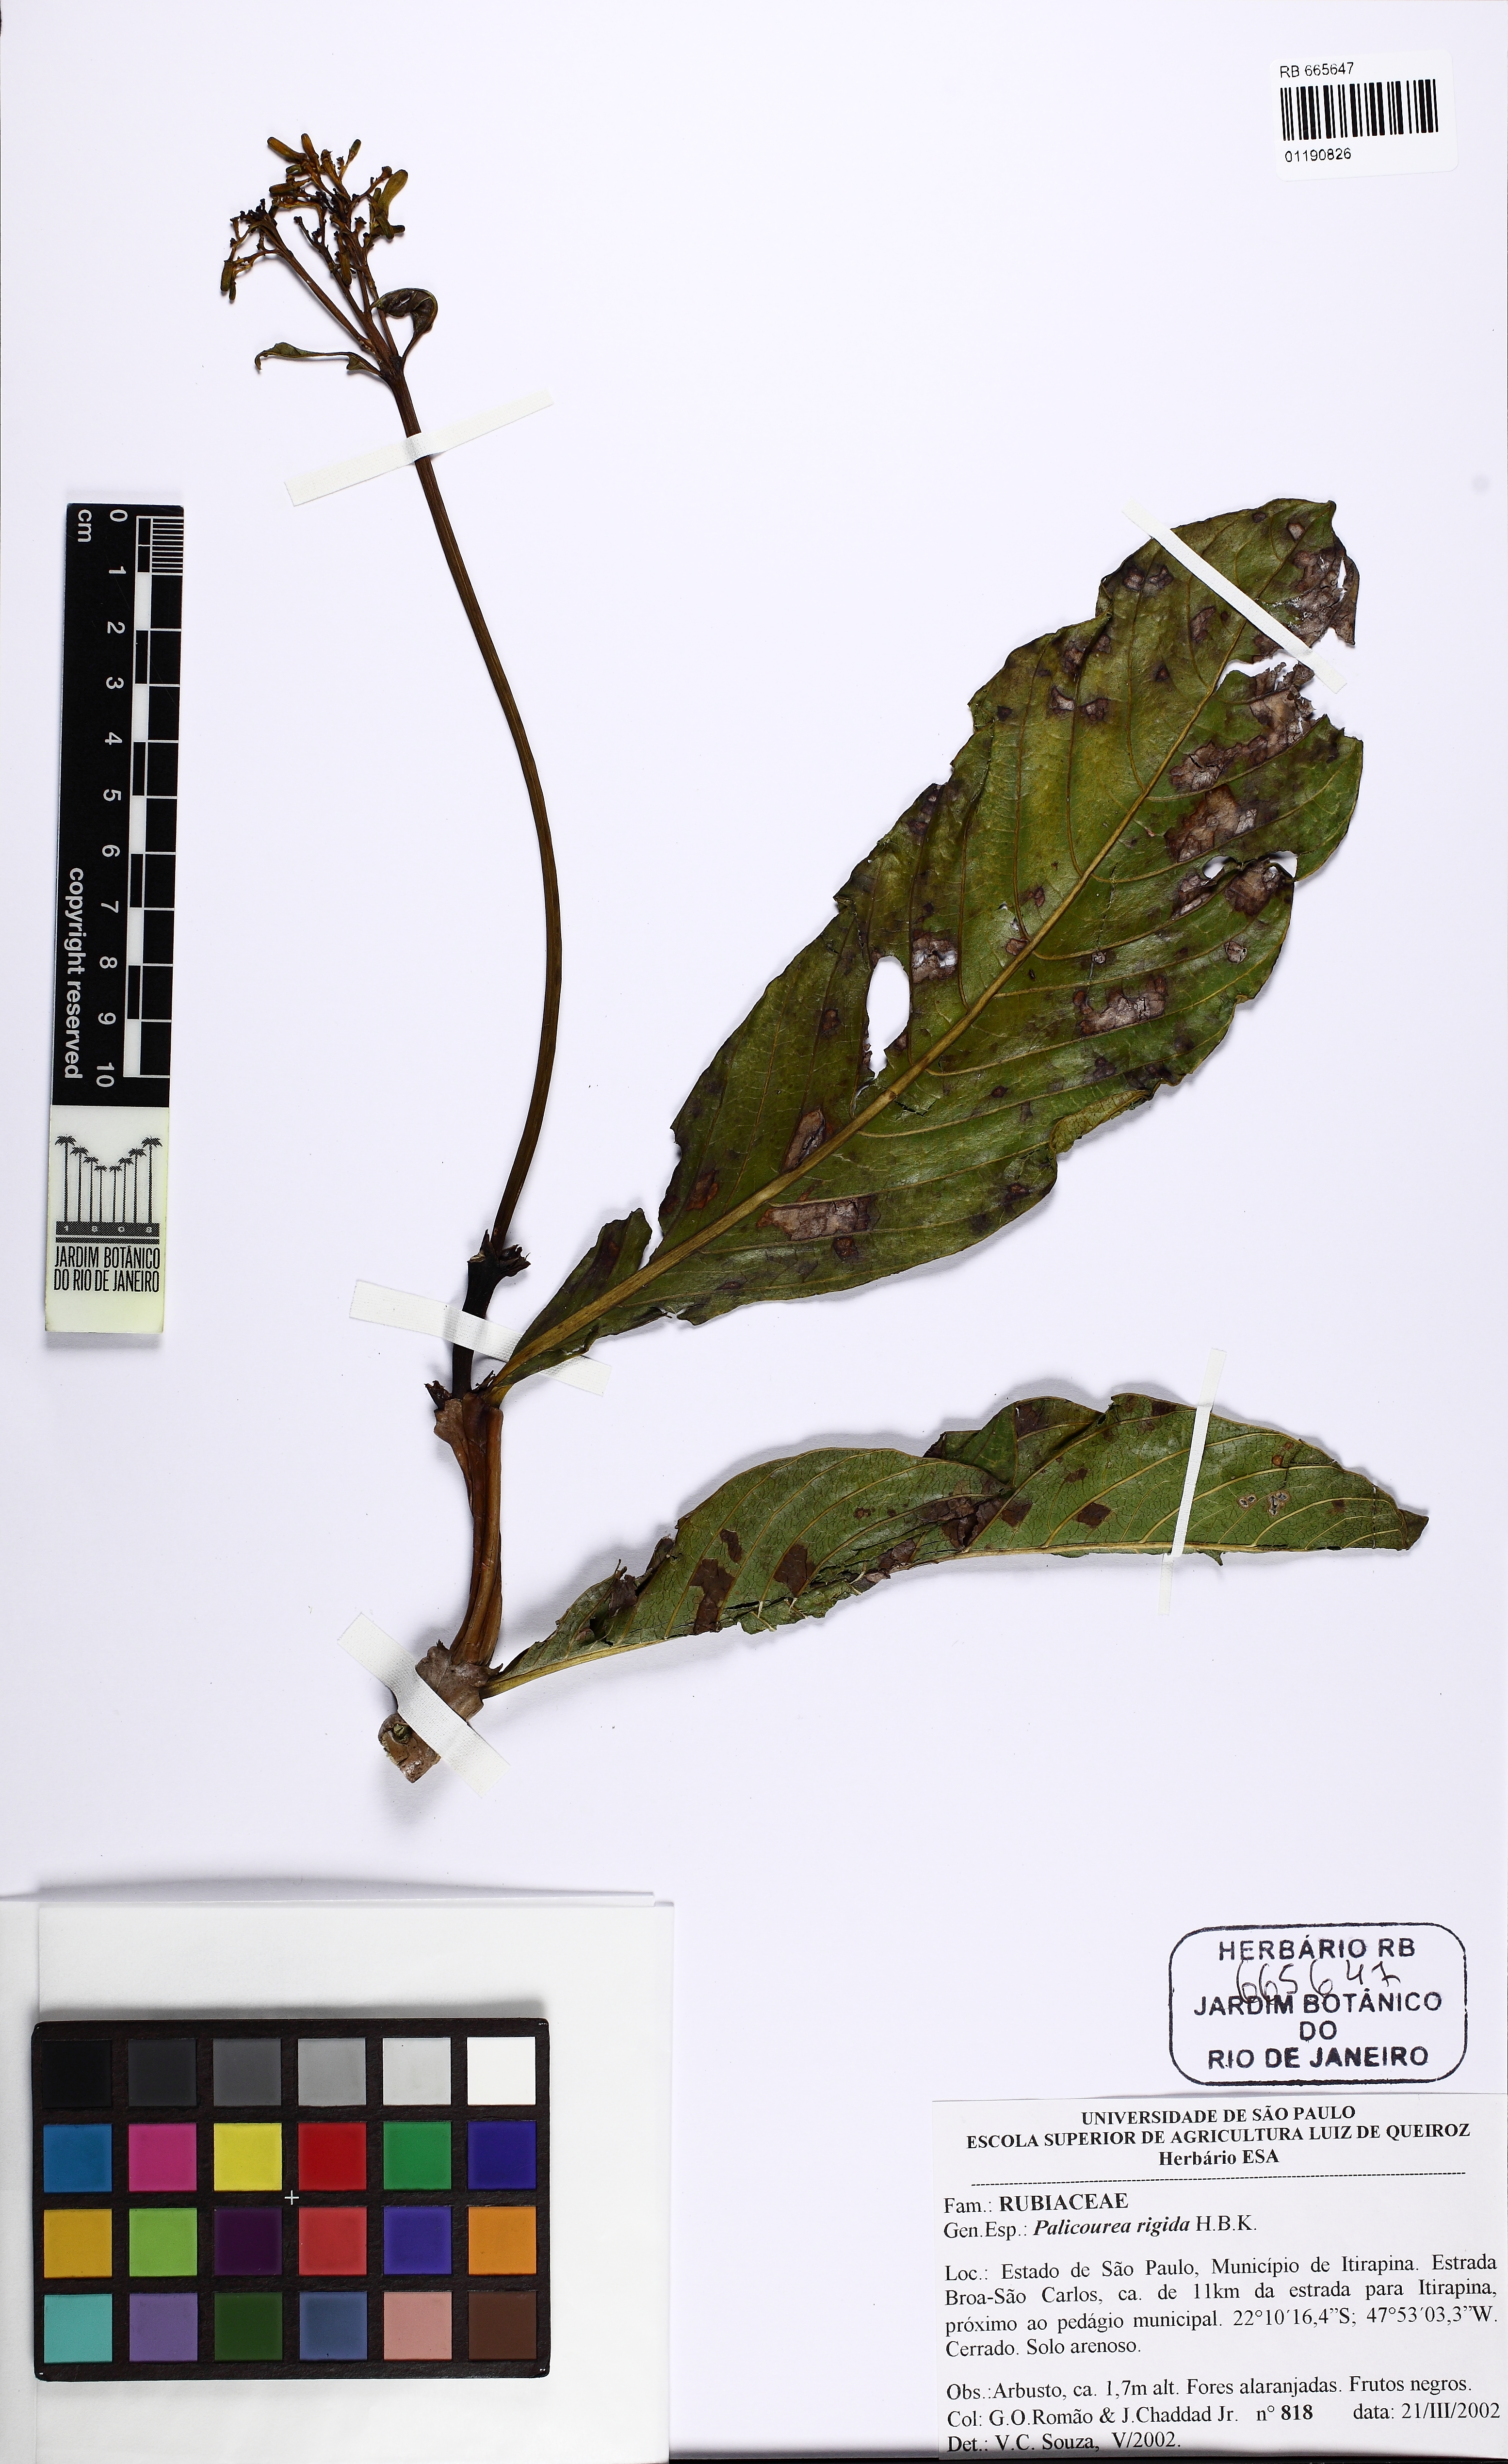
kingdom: Plantae
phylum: Tracheophyta
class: Magnoliopsida
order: Gentianales
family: Rubiaceae
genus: Palicourea
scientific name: Palicourea rigida
